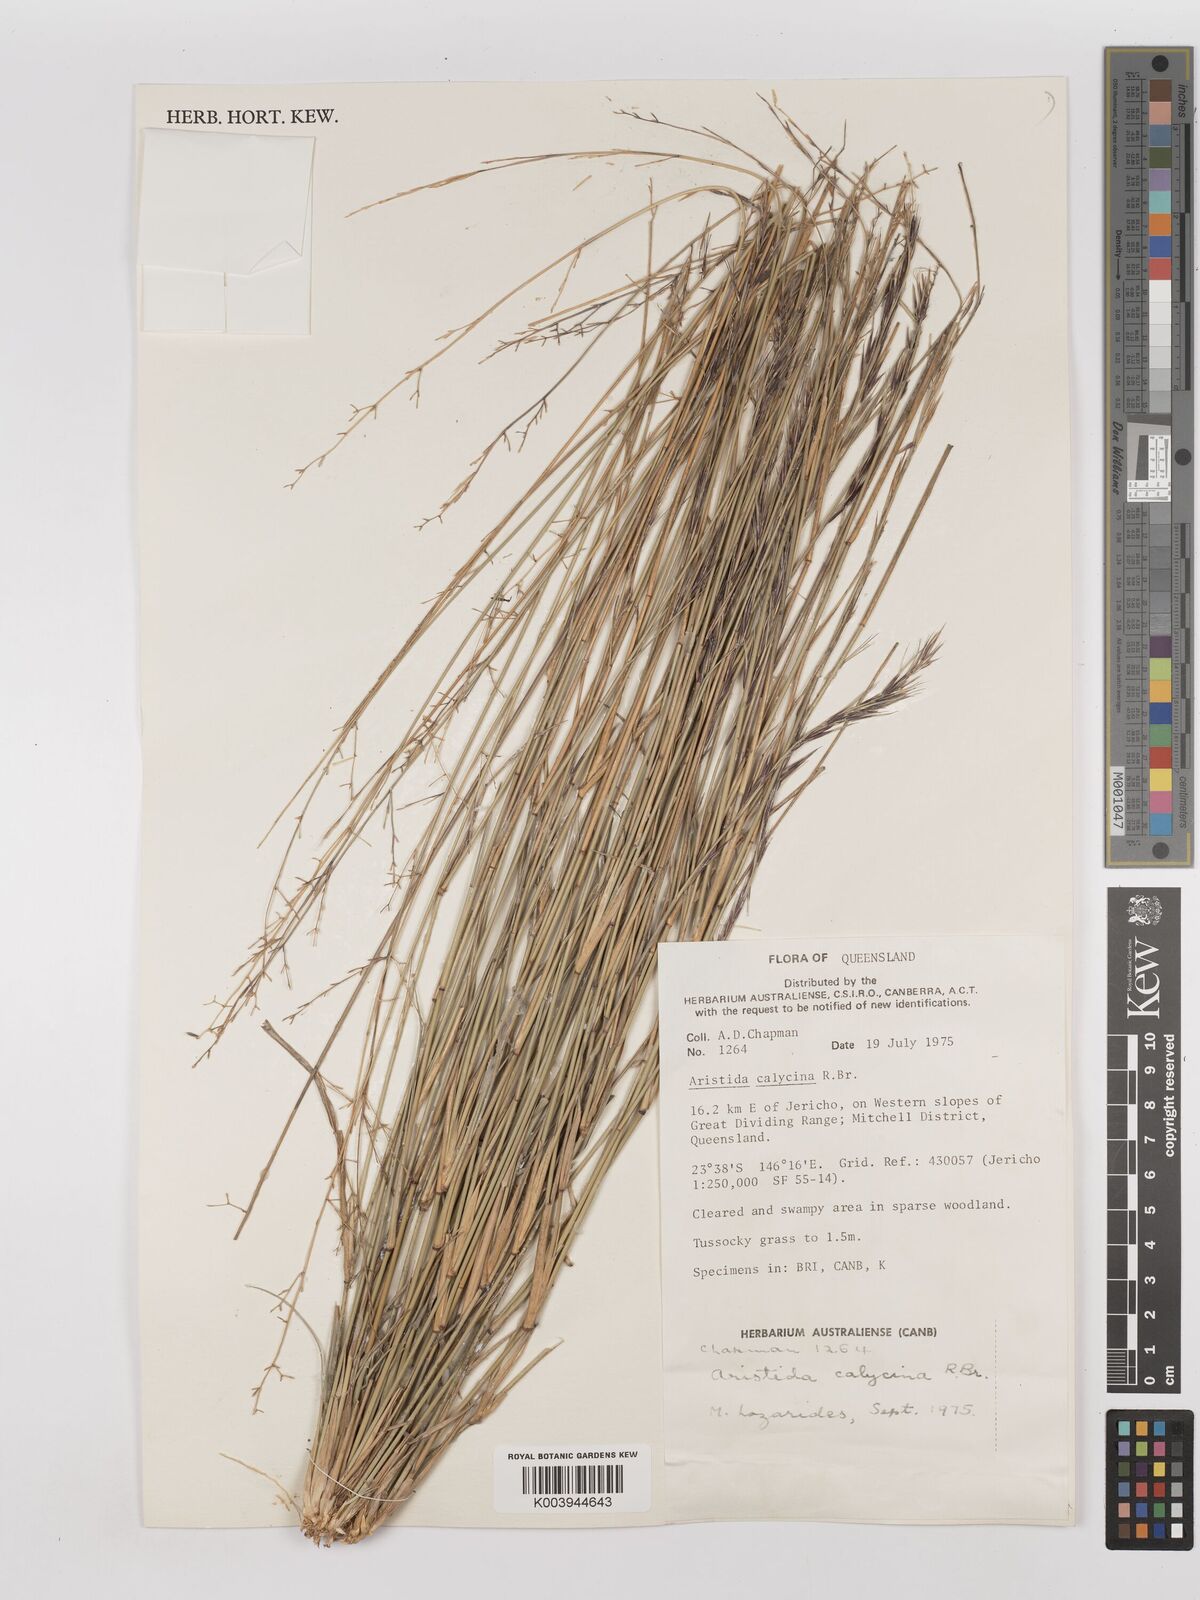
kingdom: Plantae
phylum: Tracheophyta
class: Liliopsida
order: Poales
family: Poaceae
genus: Aristida
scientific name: Aristida calycina
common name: Dark wire grass
